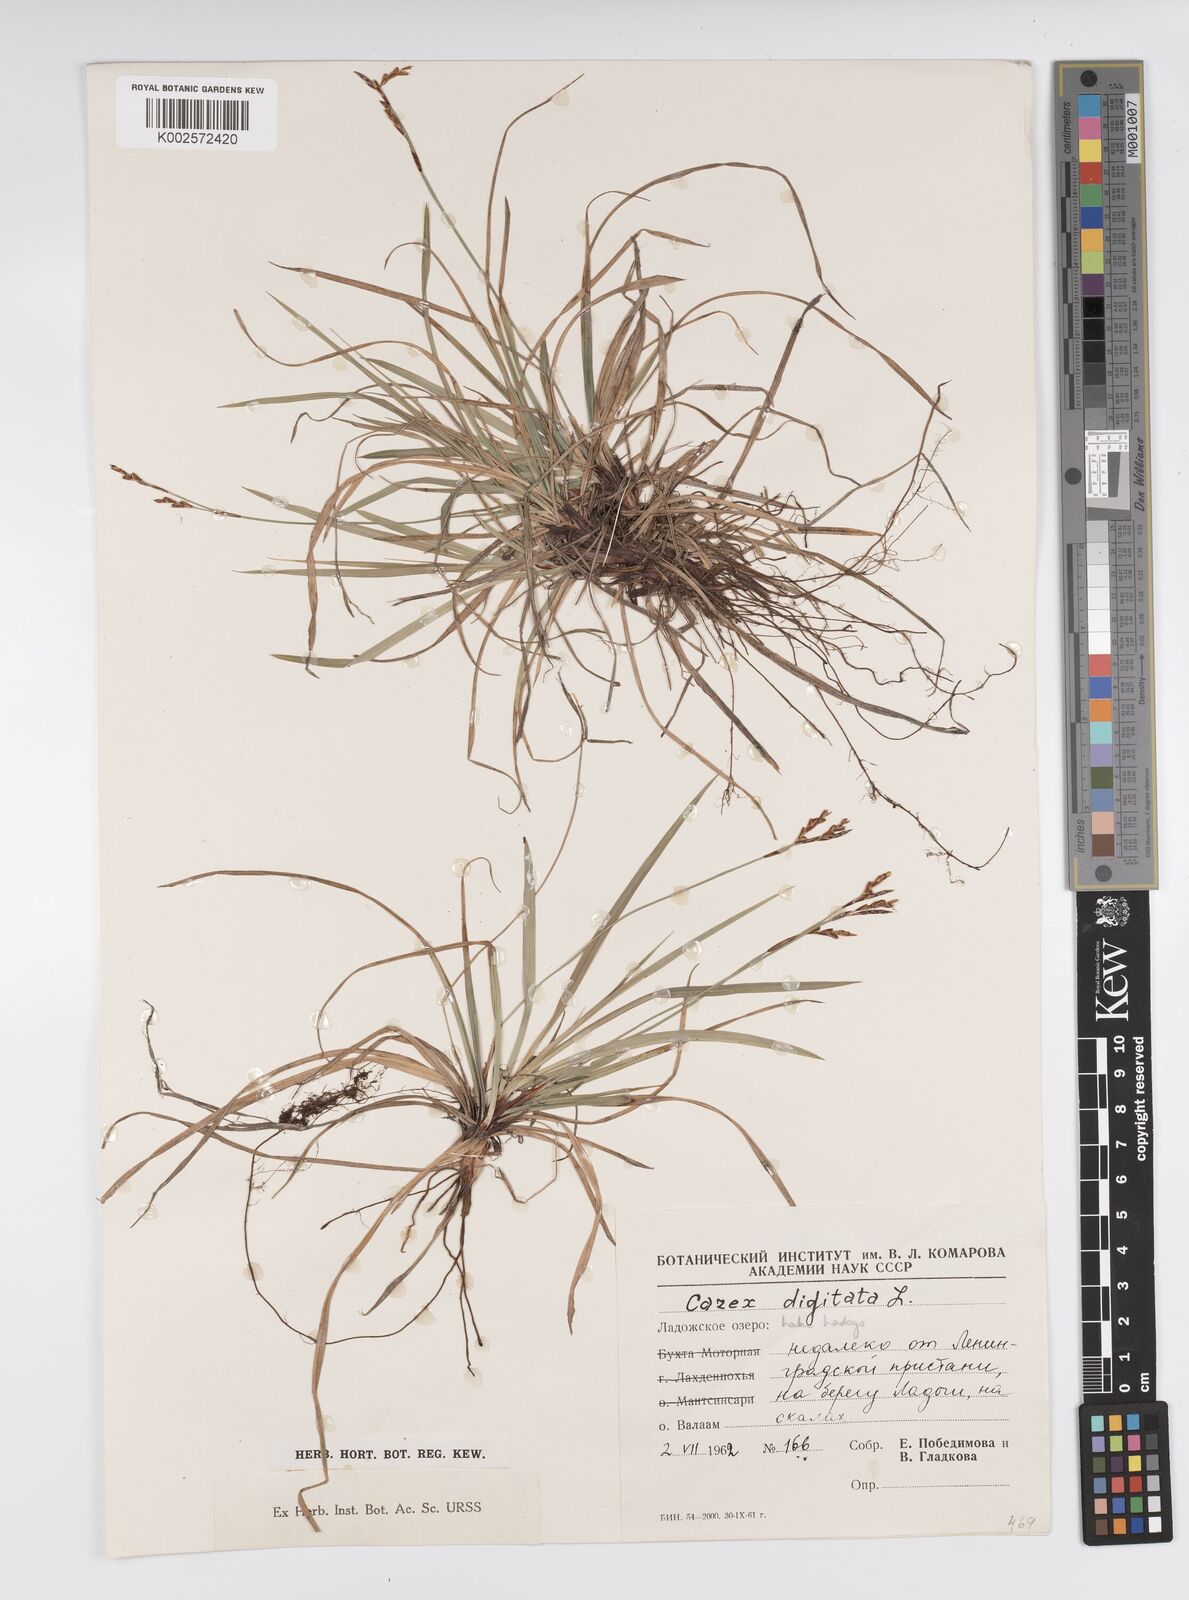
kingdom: Plantae
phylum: Tracheophyta
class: Liliopsida
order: Poales
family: Cyperaceae
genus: Carex
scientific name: Carex digitata
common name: Fingered sedge
